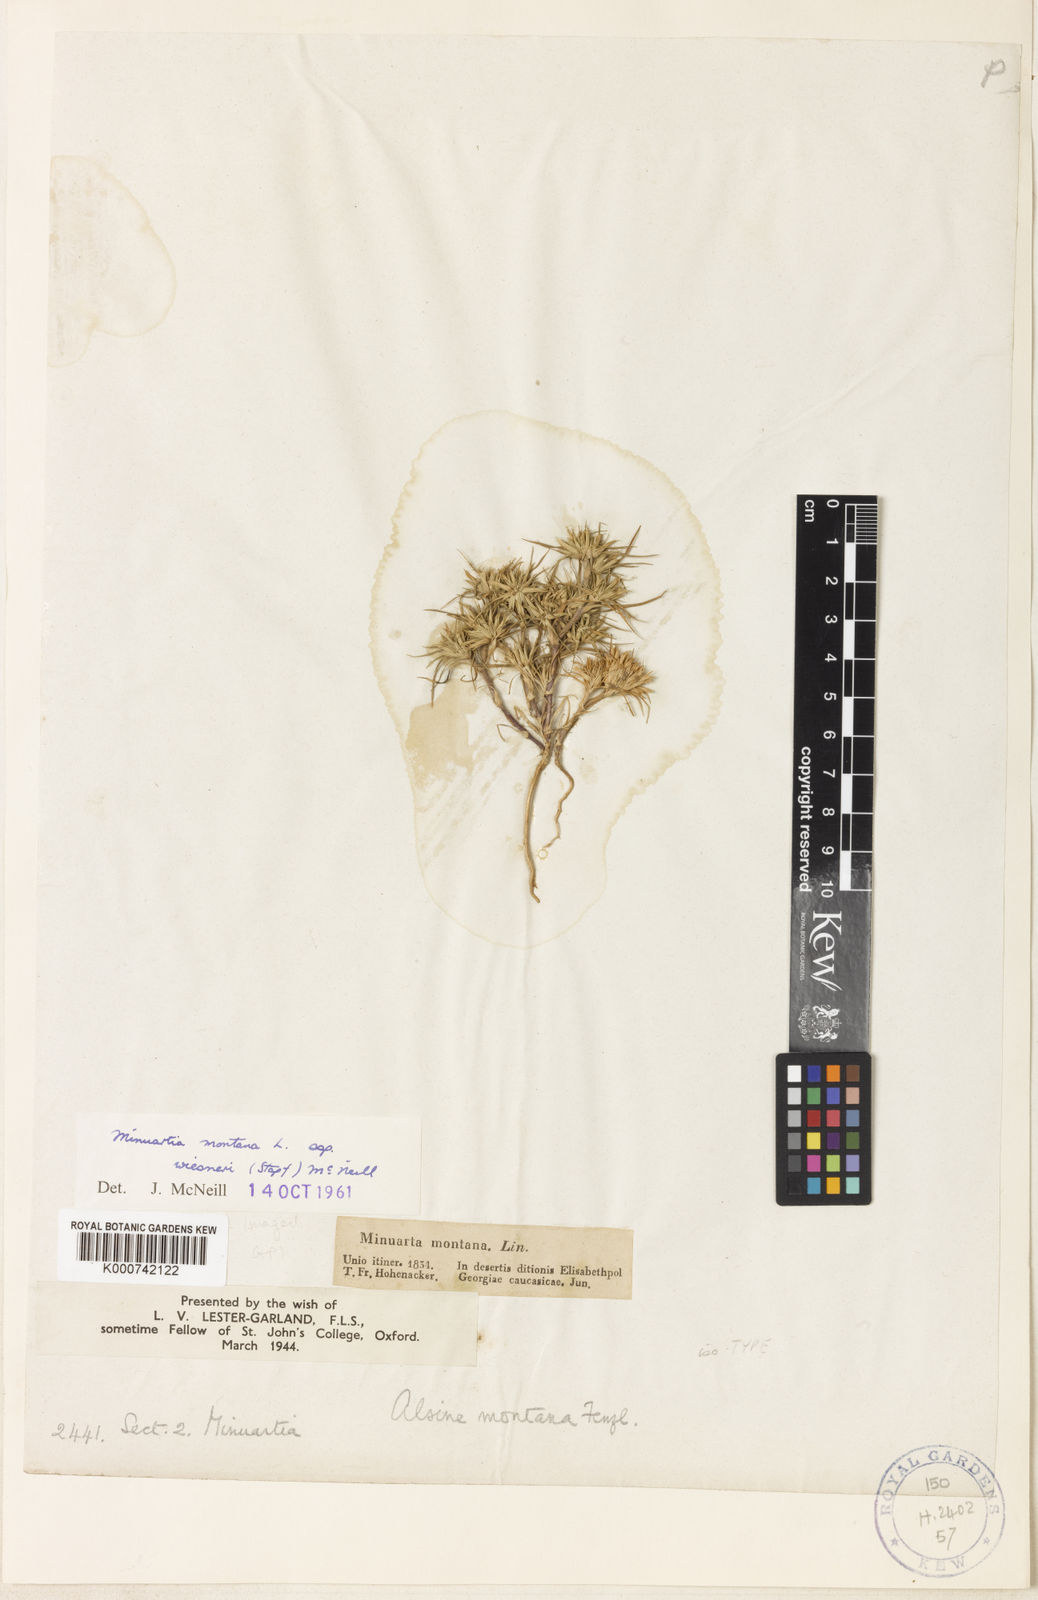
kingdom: Plantae
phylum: Tracheophyta
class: Magnoliopsida
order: Caryophyllales
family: Caryophyllaceae
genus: Minuartia
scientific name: Minuartia montana
